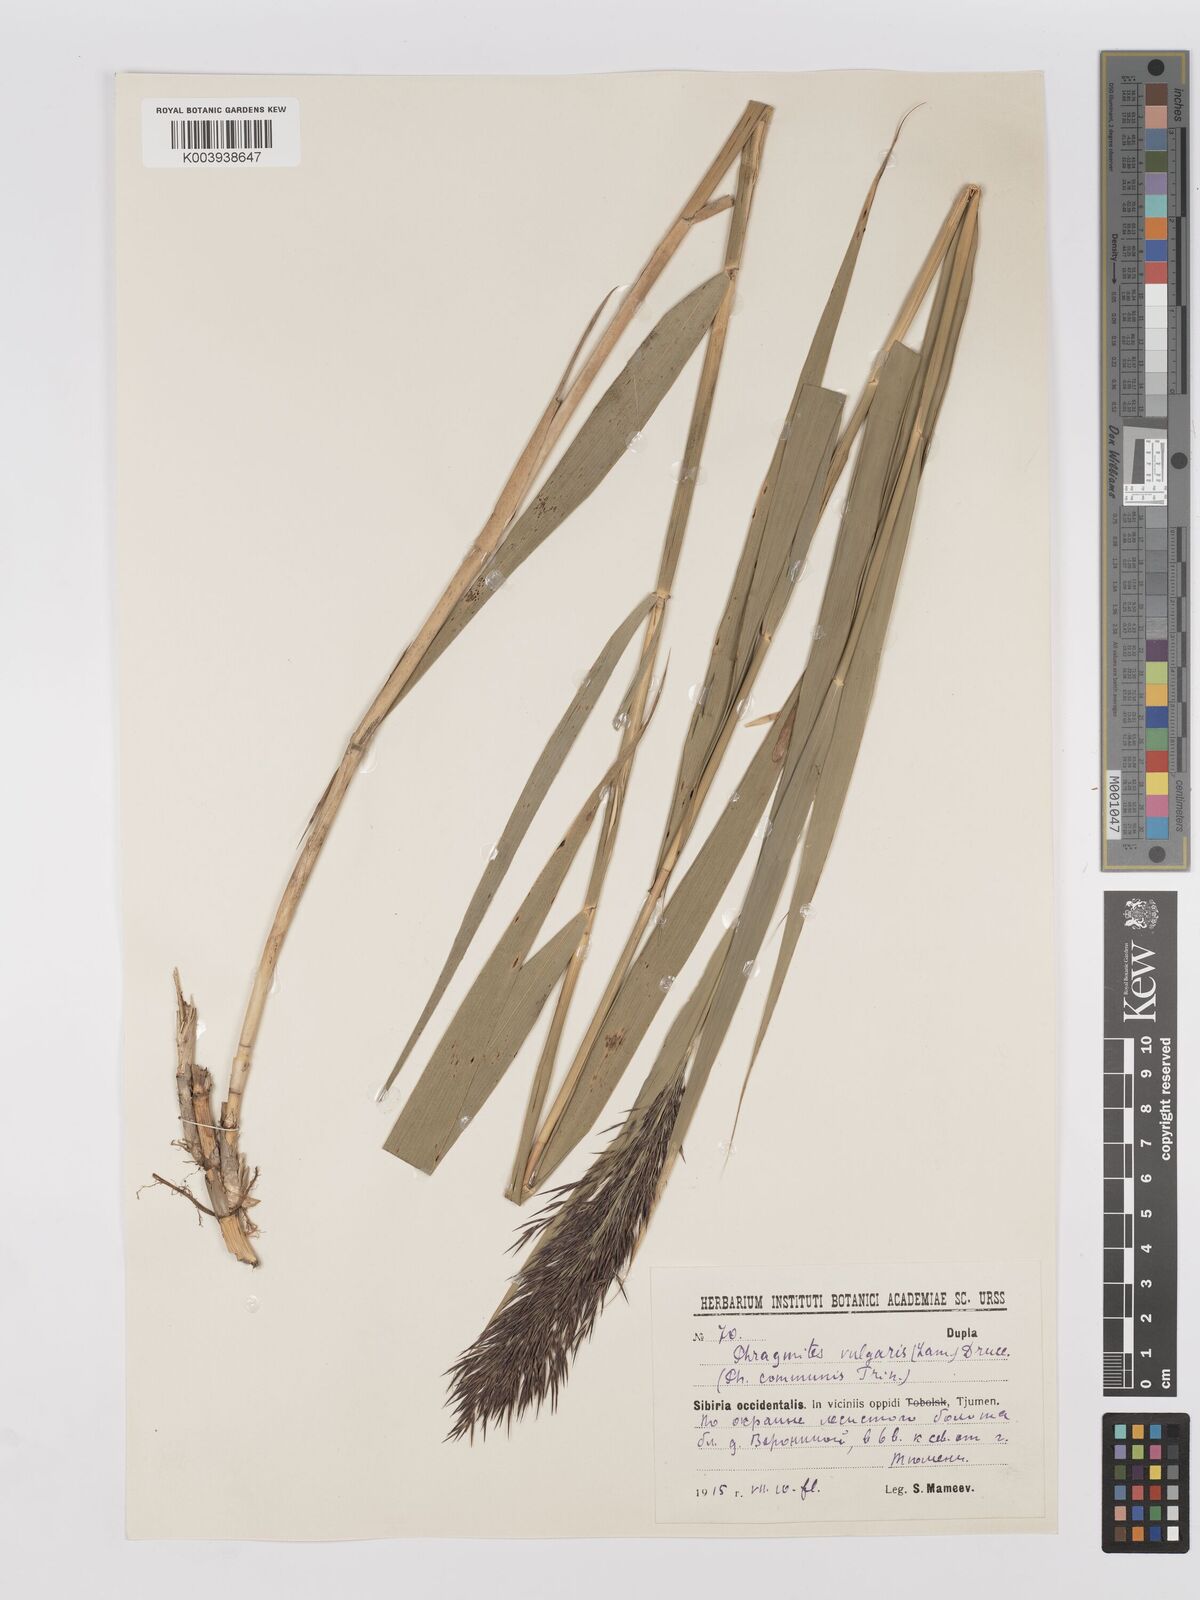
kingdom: Plantae
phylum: Tracheophyta
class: Liliopsida
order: Poales
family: Poaceae
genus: Phragmites
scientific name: Phragmites australis
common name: Common reed
